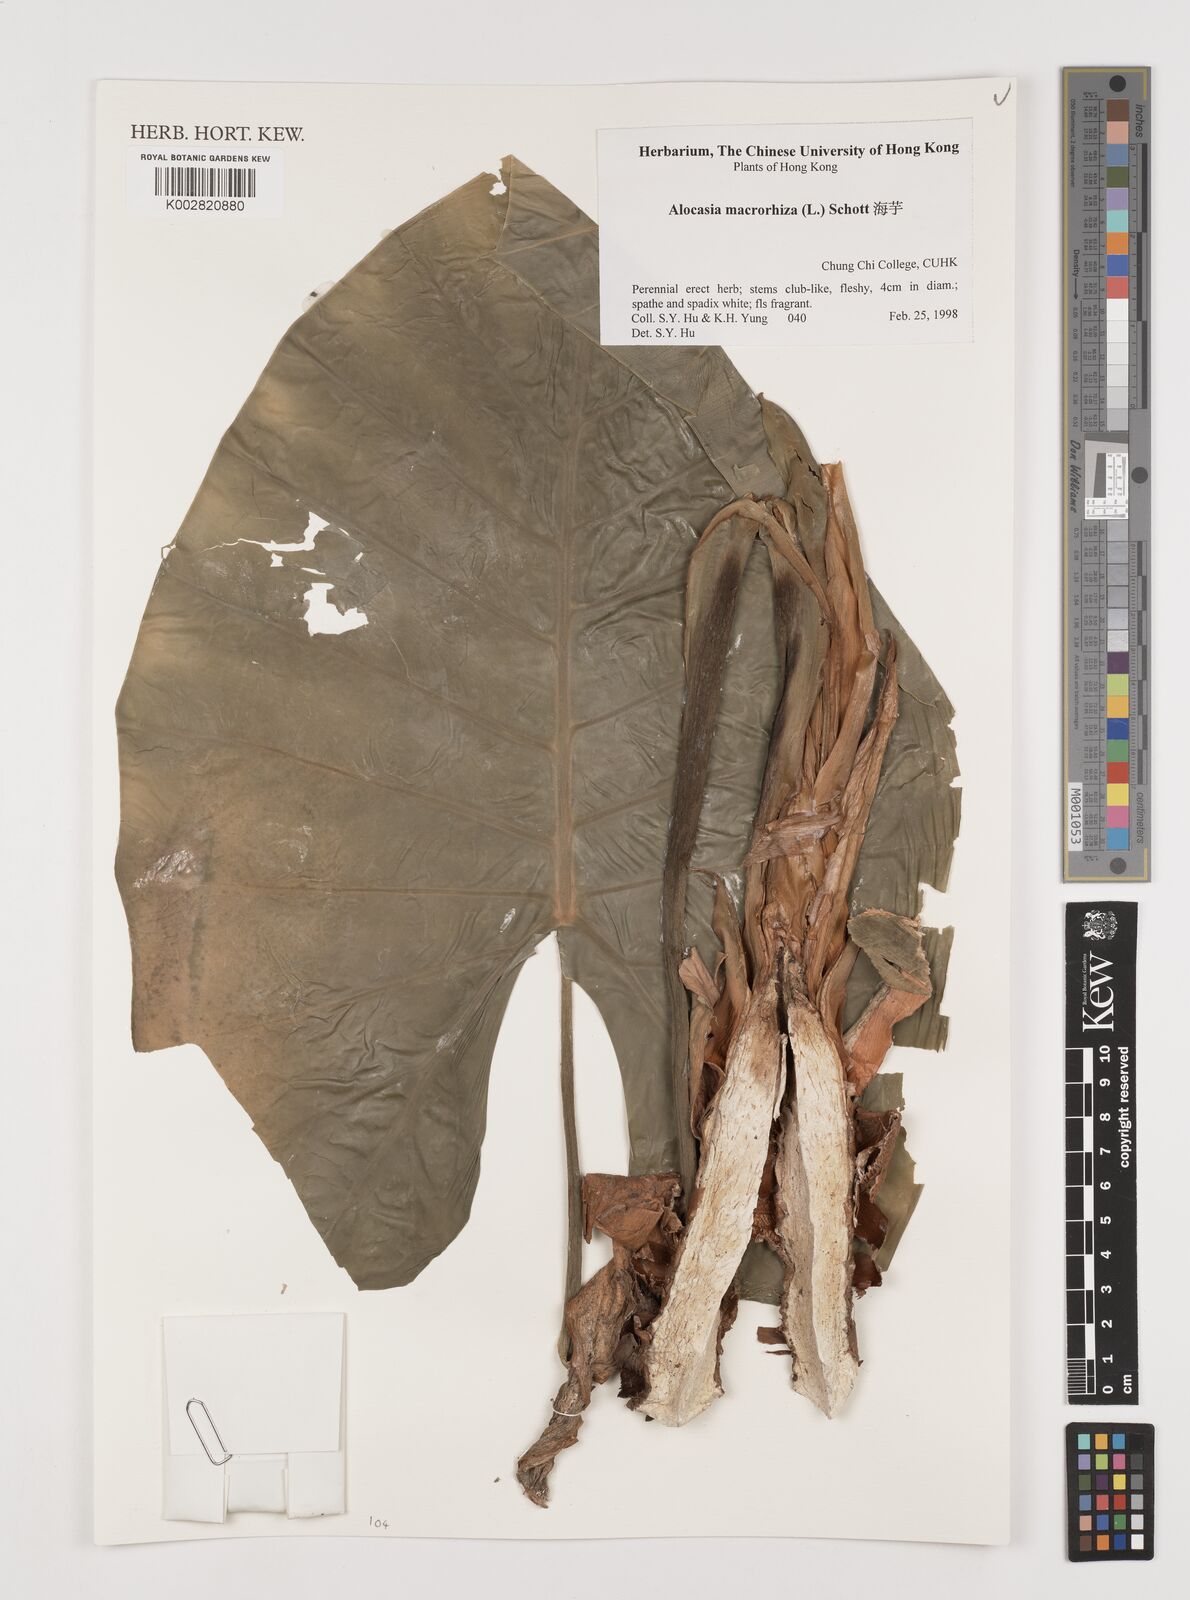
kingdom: Plantae
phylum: Tracheophyta
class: Liliopsida
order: Alismatales
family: Araceae
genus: Alocasia
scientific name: Alocasia macrorrhizos
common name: Giant taro
